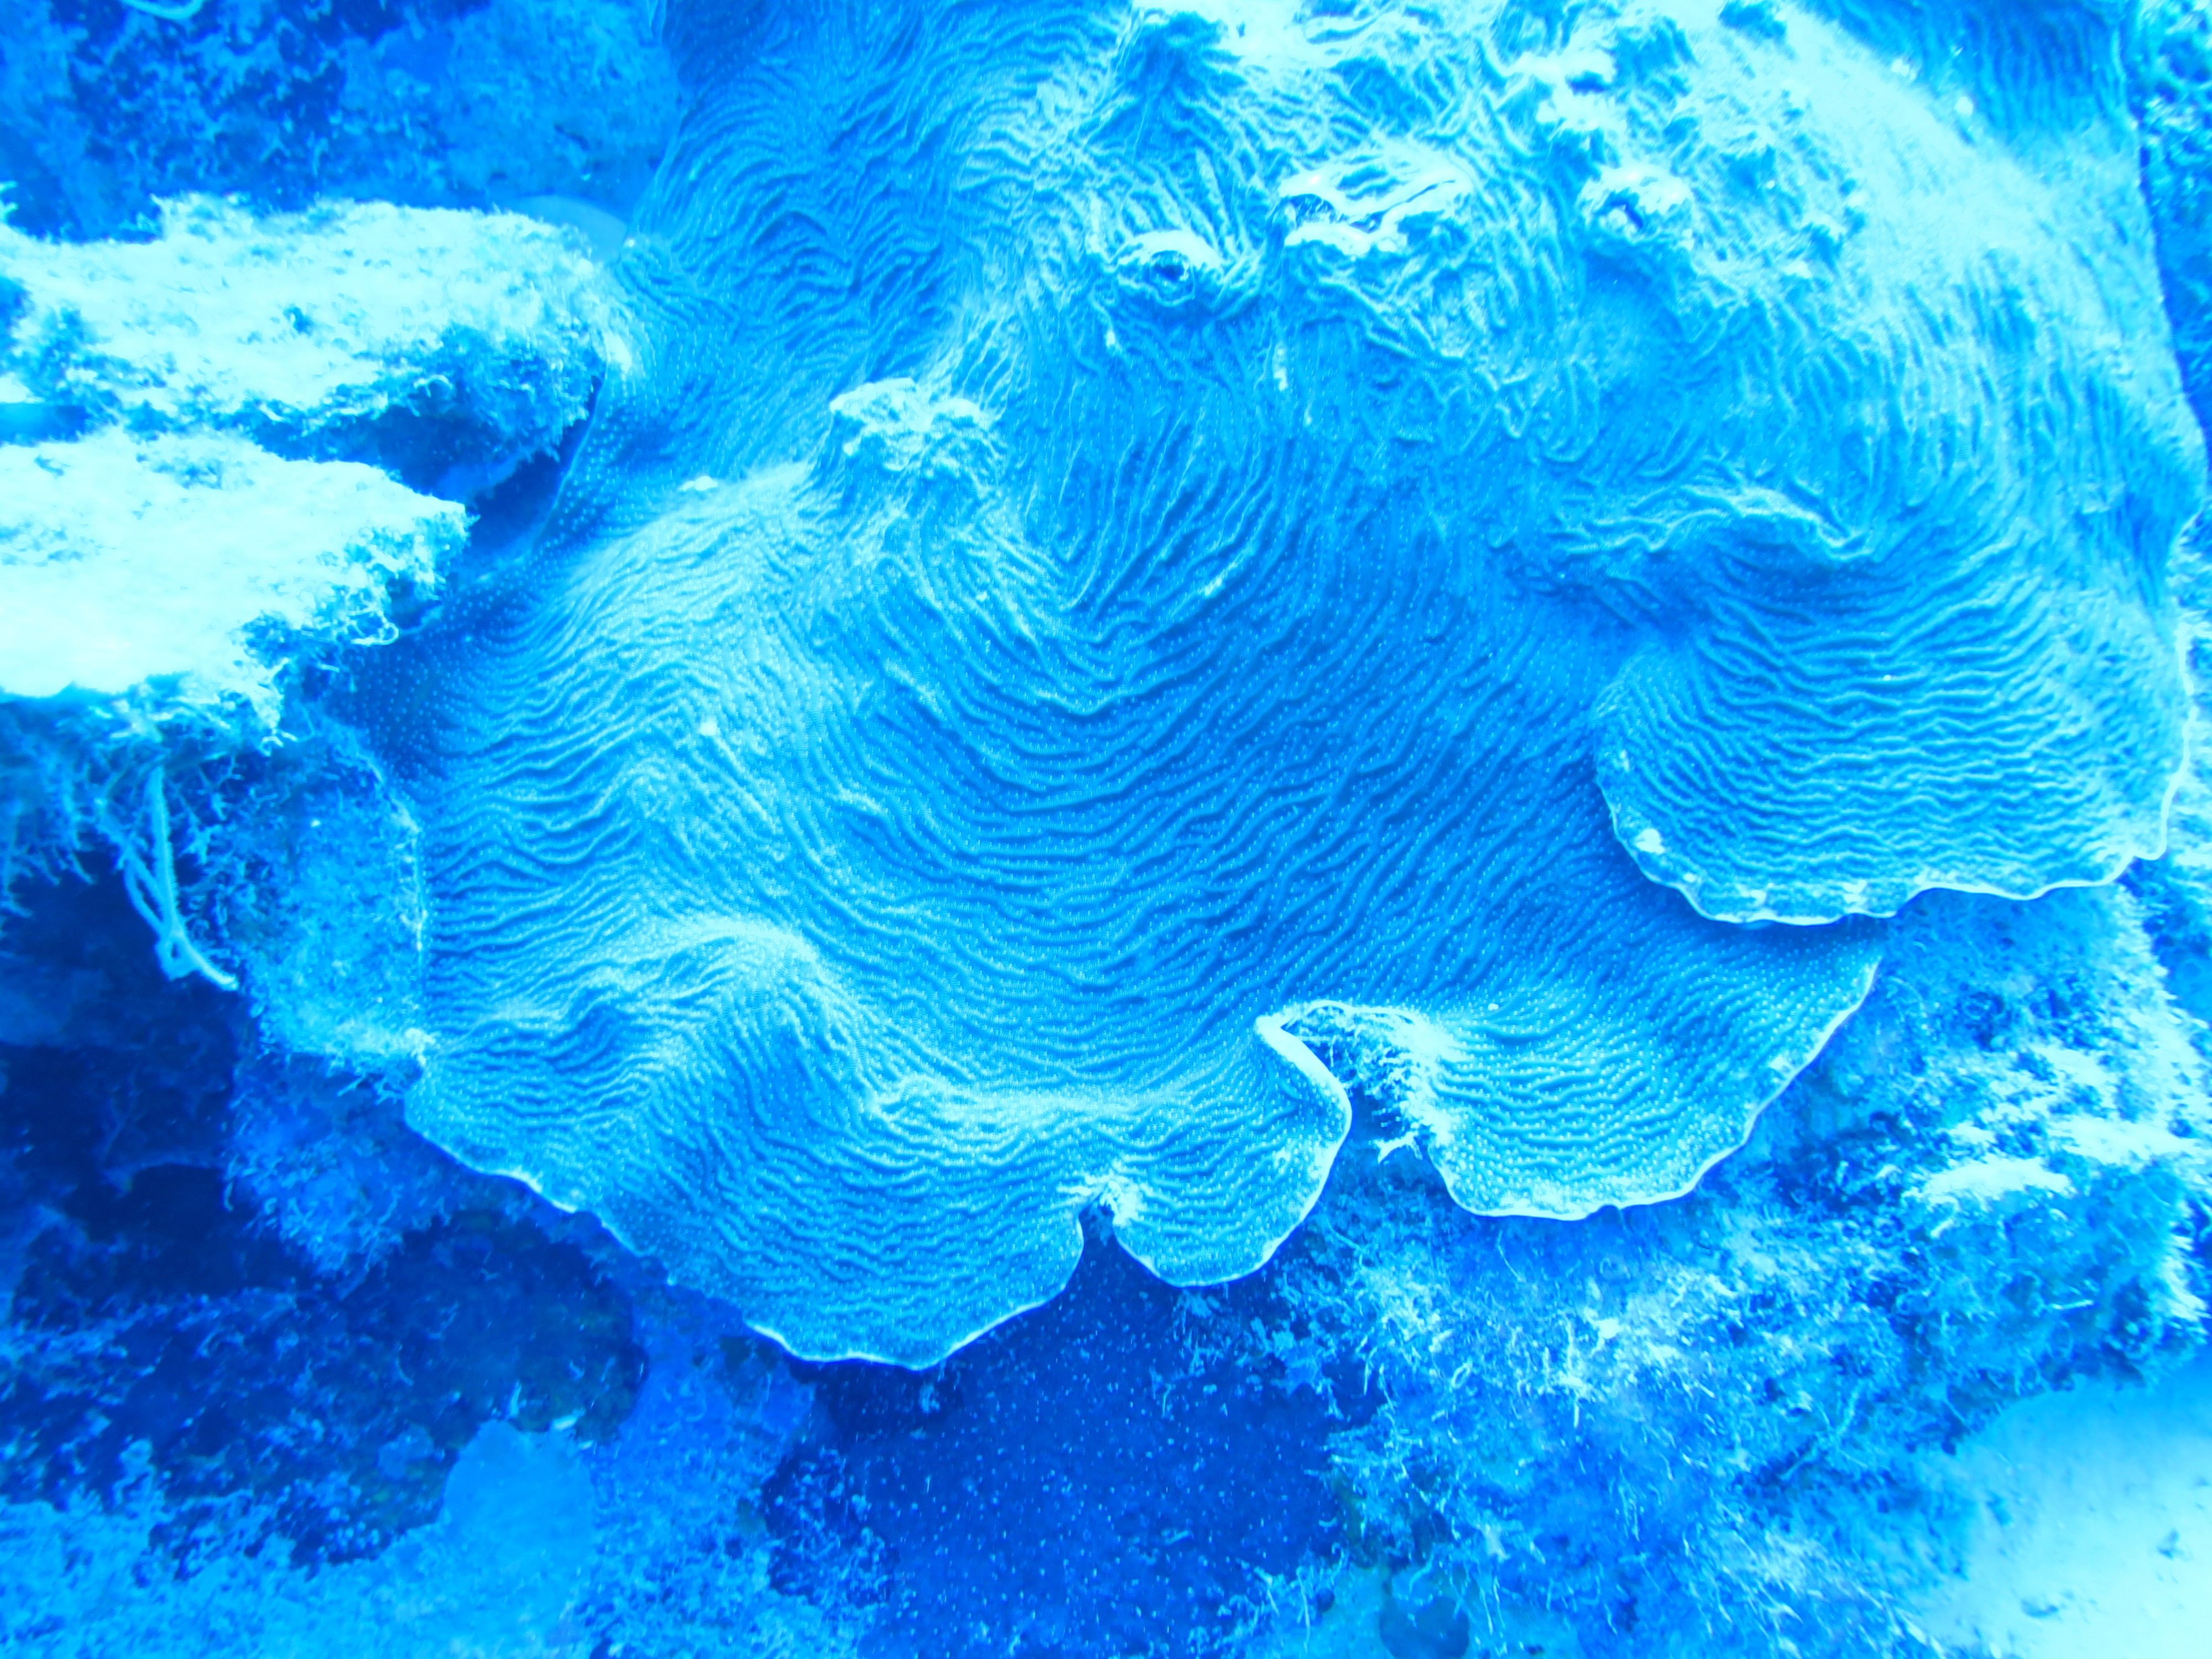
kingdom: Animalia
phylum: Cnidaria
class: Anthozoa
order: Scleractinia
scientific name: Scleractinia
